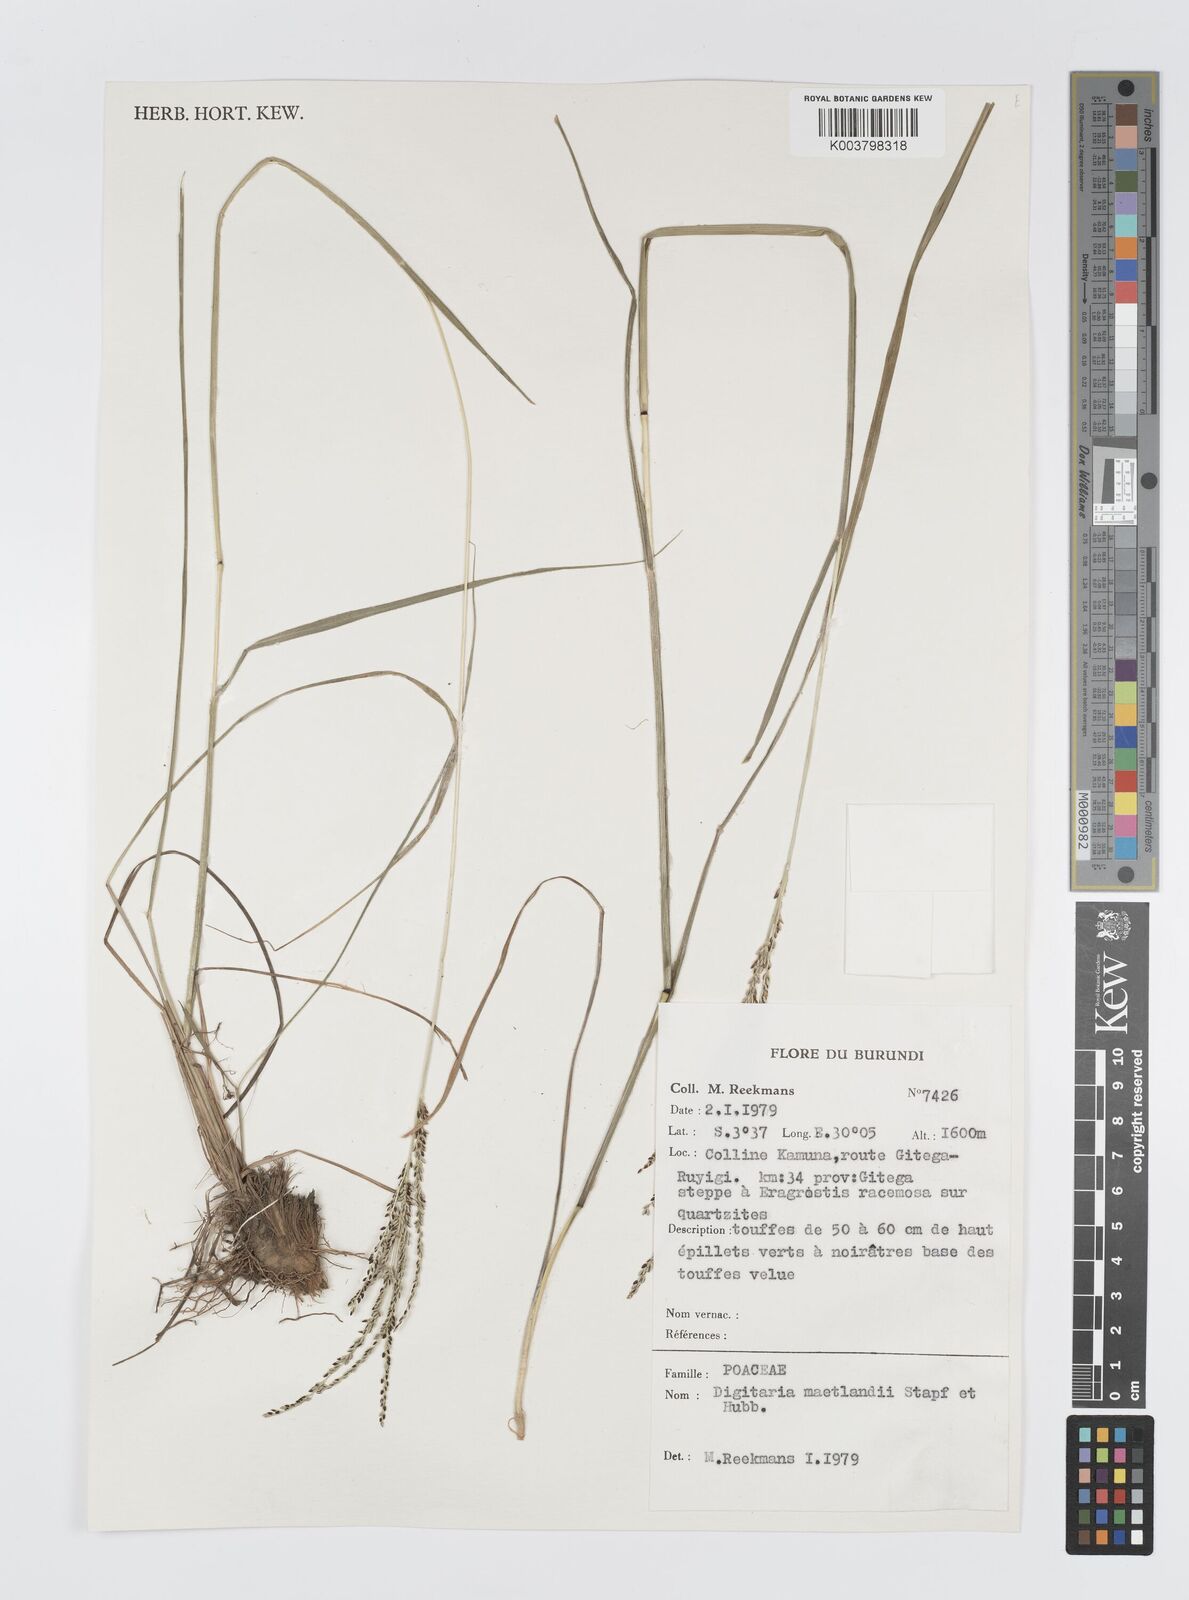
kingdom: Plantae
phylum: Tracheophyta
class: Liliopsida
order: Poales
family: Poaceae
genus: Digitaria
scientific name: Digitaria maitlandii
